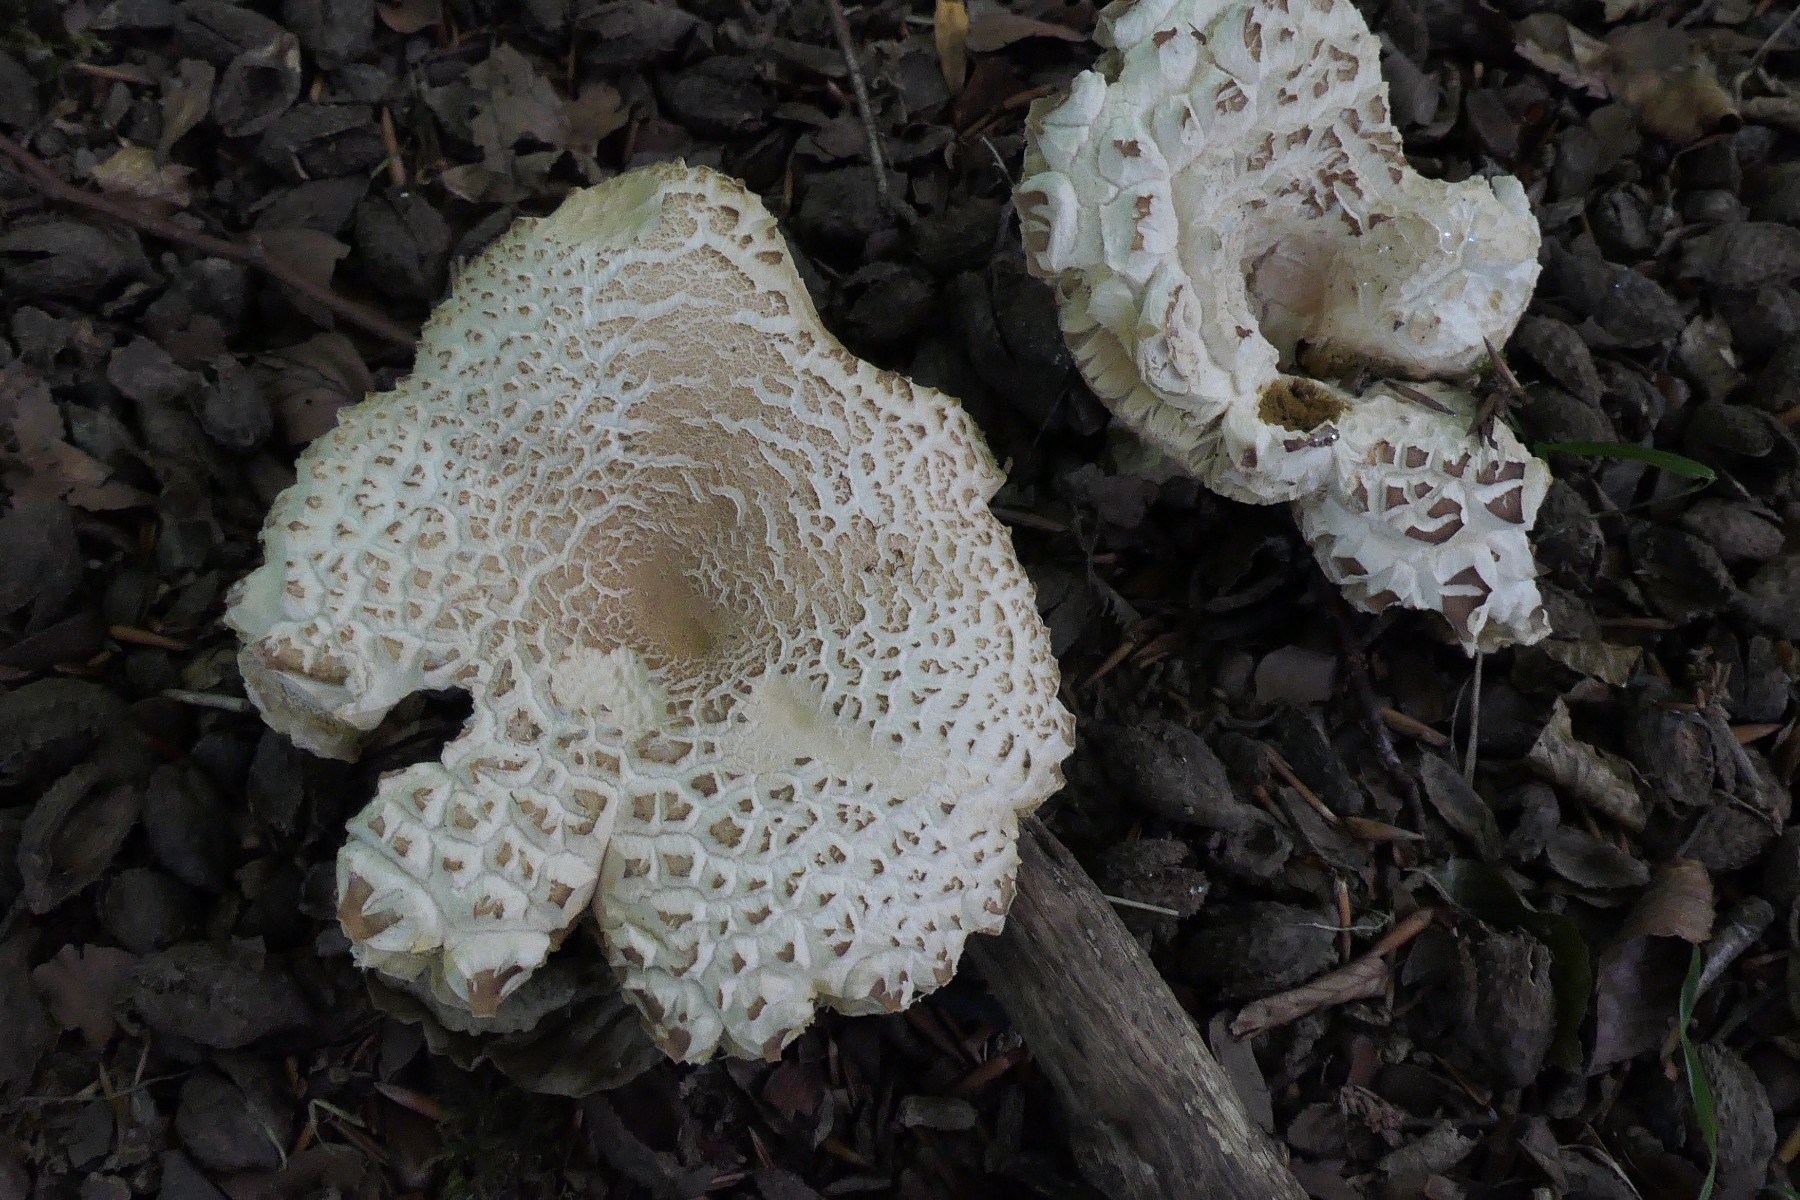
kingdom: Fungi
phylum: Basidiomycota
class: Agaricomycetes
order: Boletales
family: Boletaceae
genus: Boletus
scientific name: Boletus reticulatus
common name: sommer-rørhat
